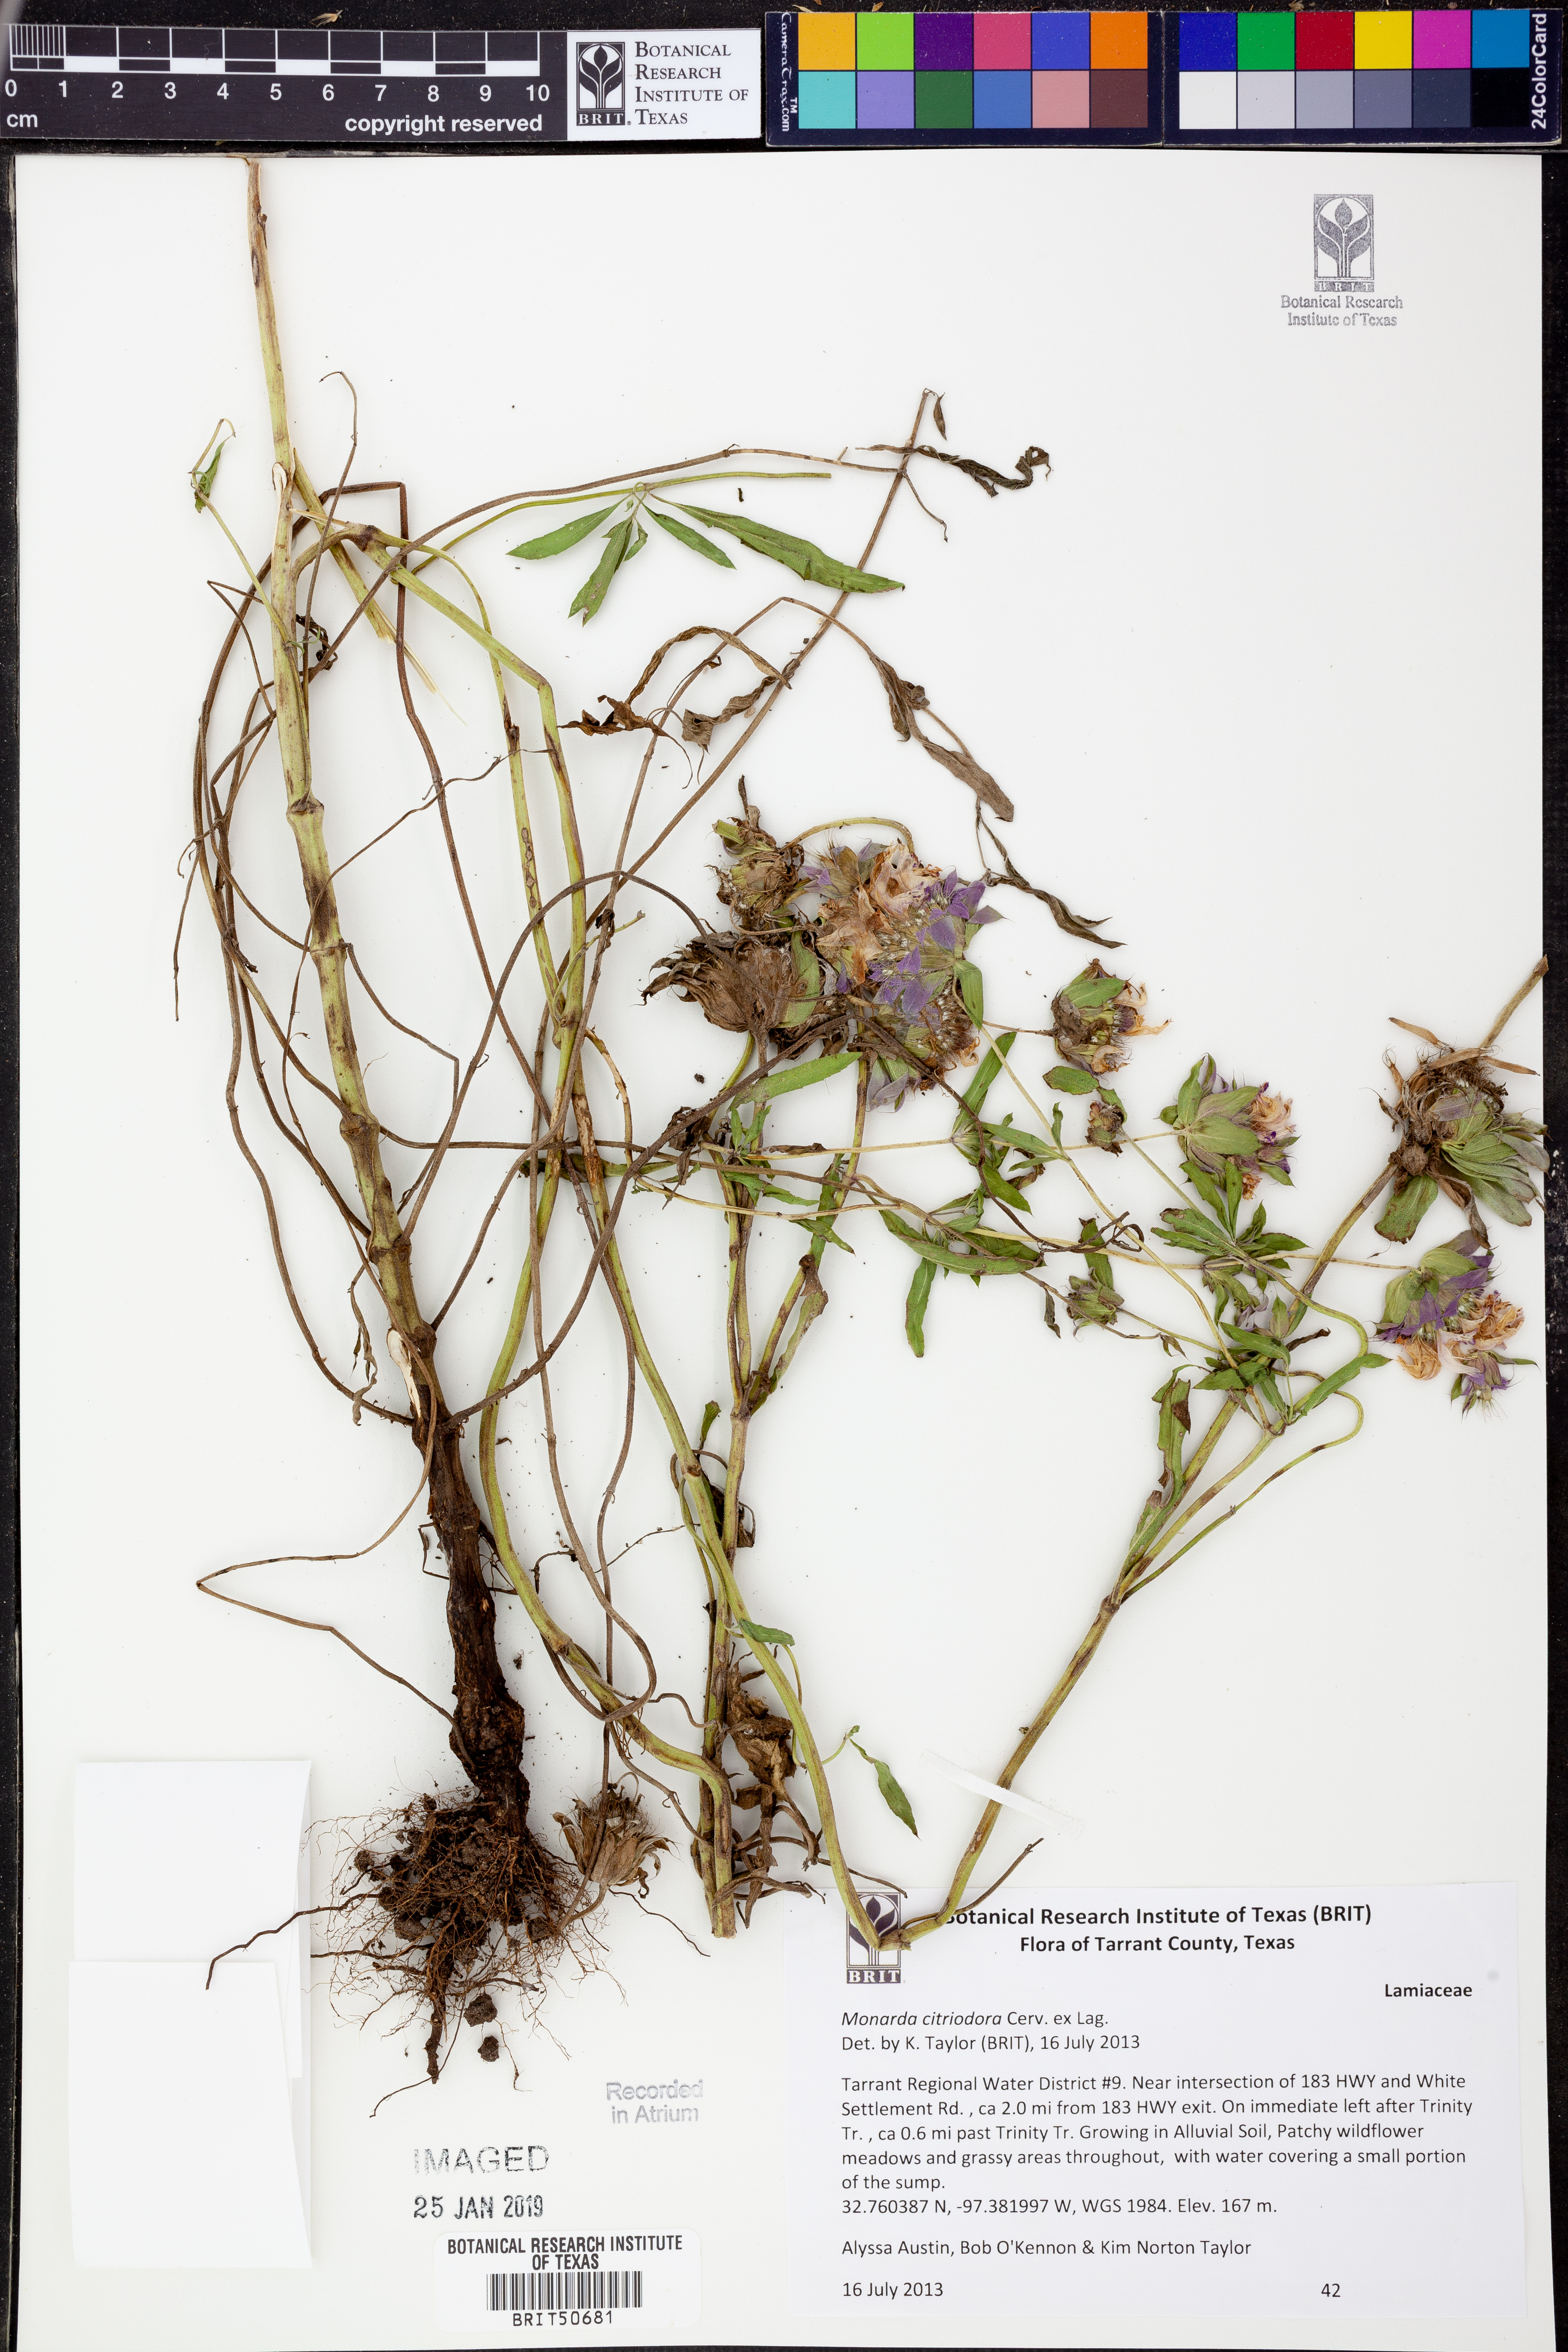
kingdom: Plantae
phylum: Tracheophyta
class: Magnoliopsida
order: Lamiales
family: Lamiaceae
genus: Monarda
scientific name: Monarda citriodora
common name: Lemon beebalm
